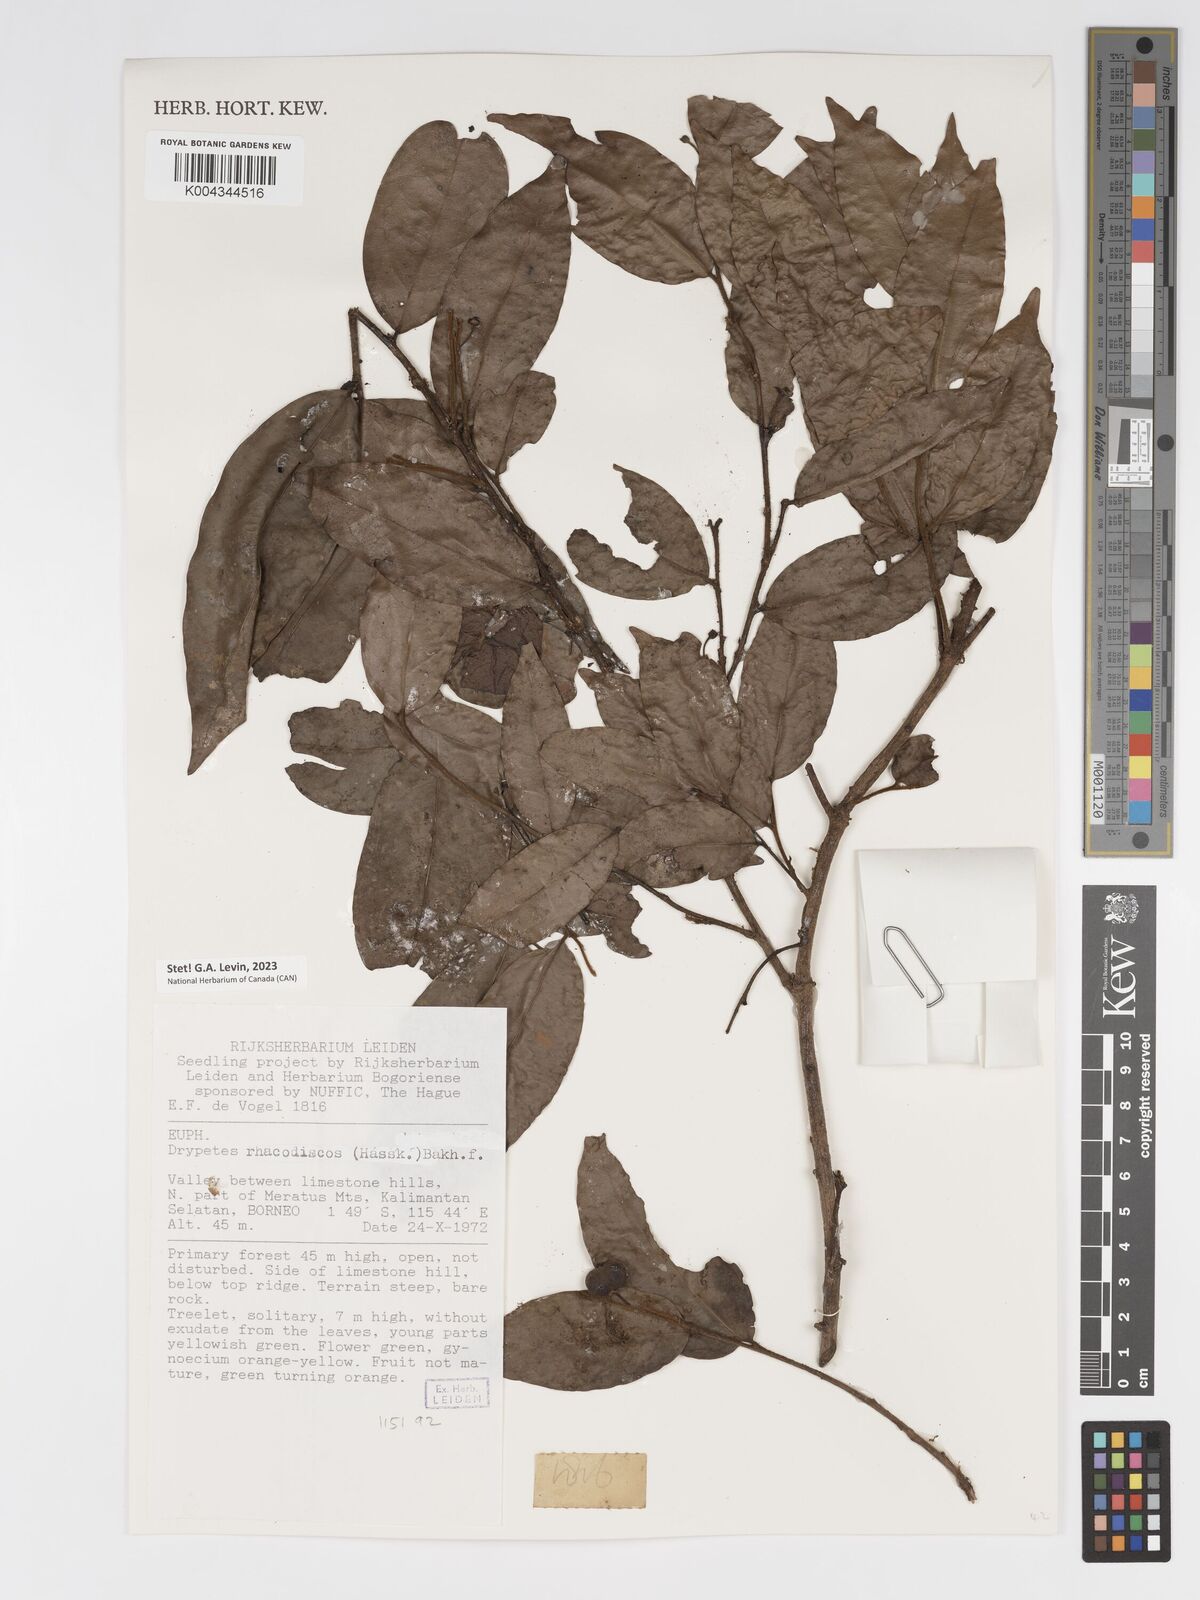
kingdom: Plantae
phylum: Tracheophyta
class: Magnoliopsida
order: Malpighiales
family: Putranjivaceae
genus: Drypetes
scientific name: Drypetes rhakodiskos
